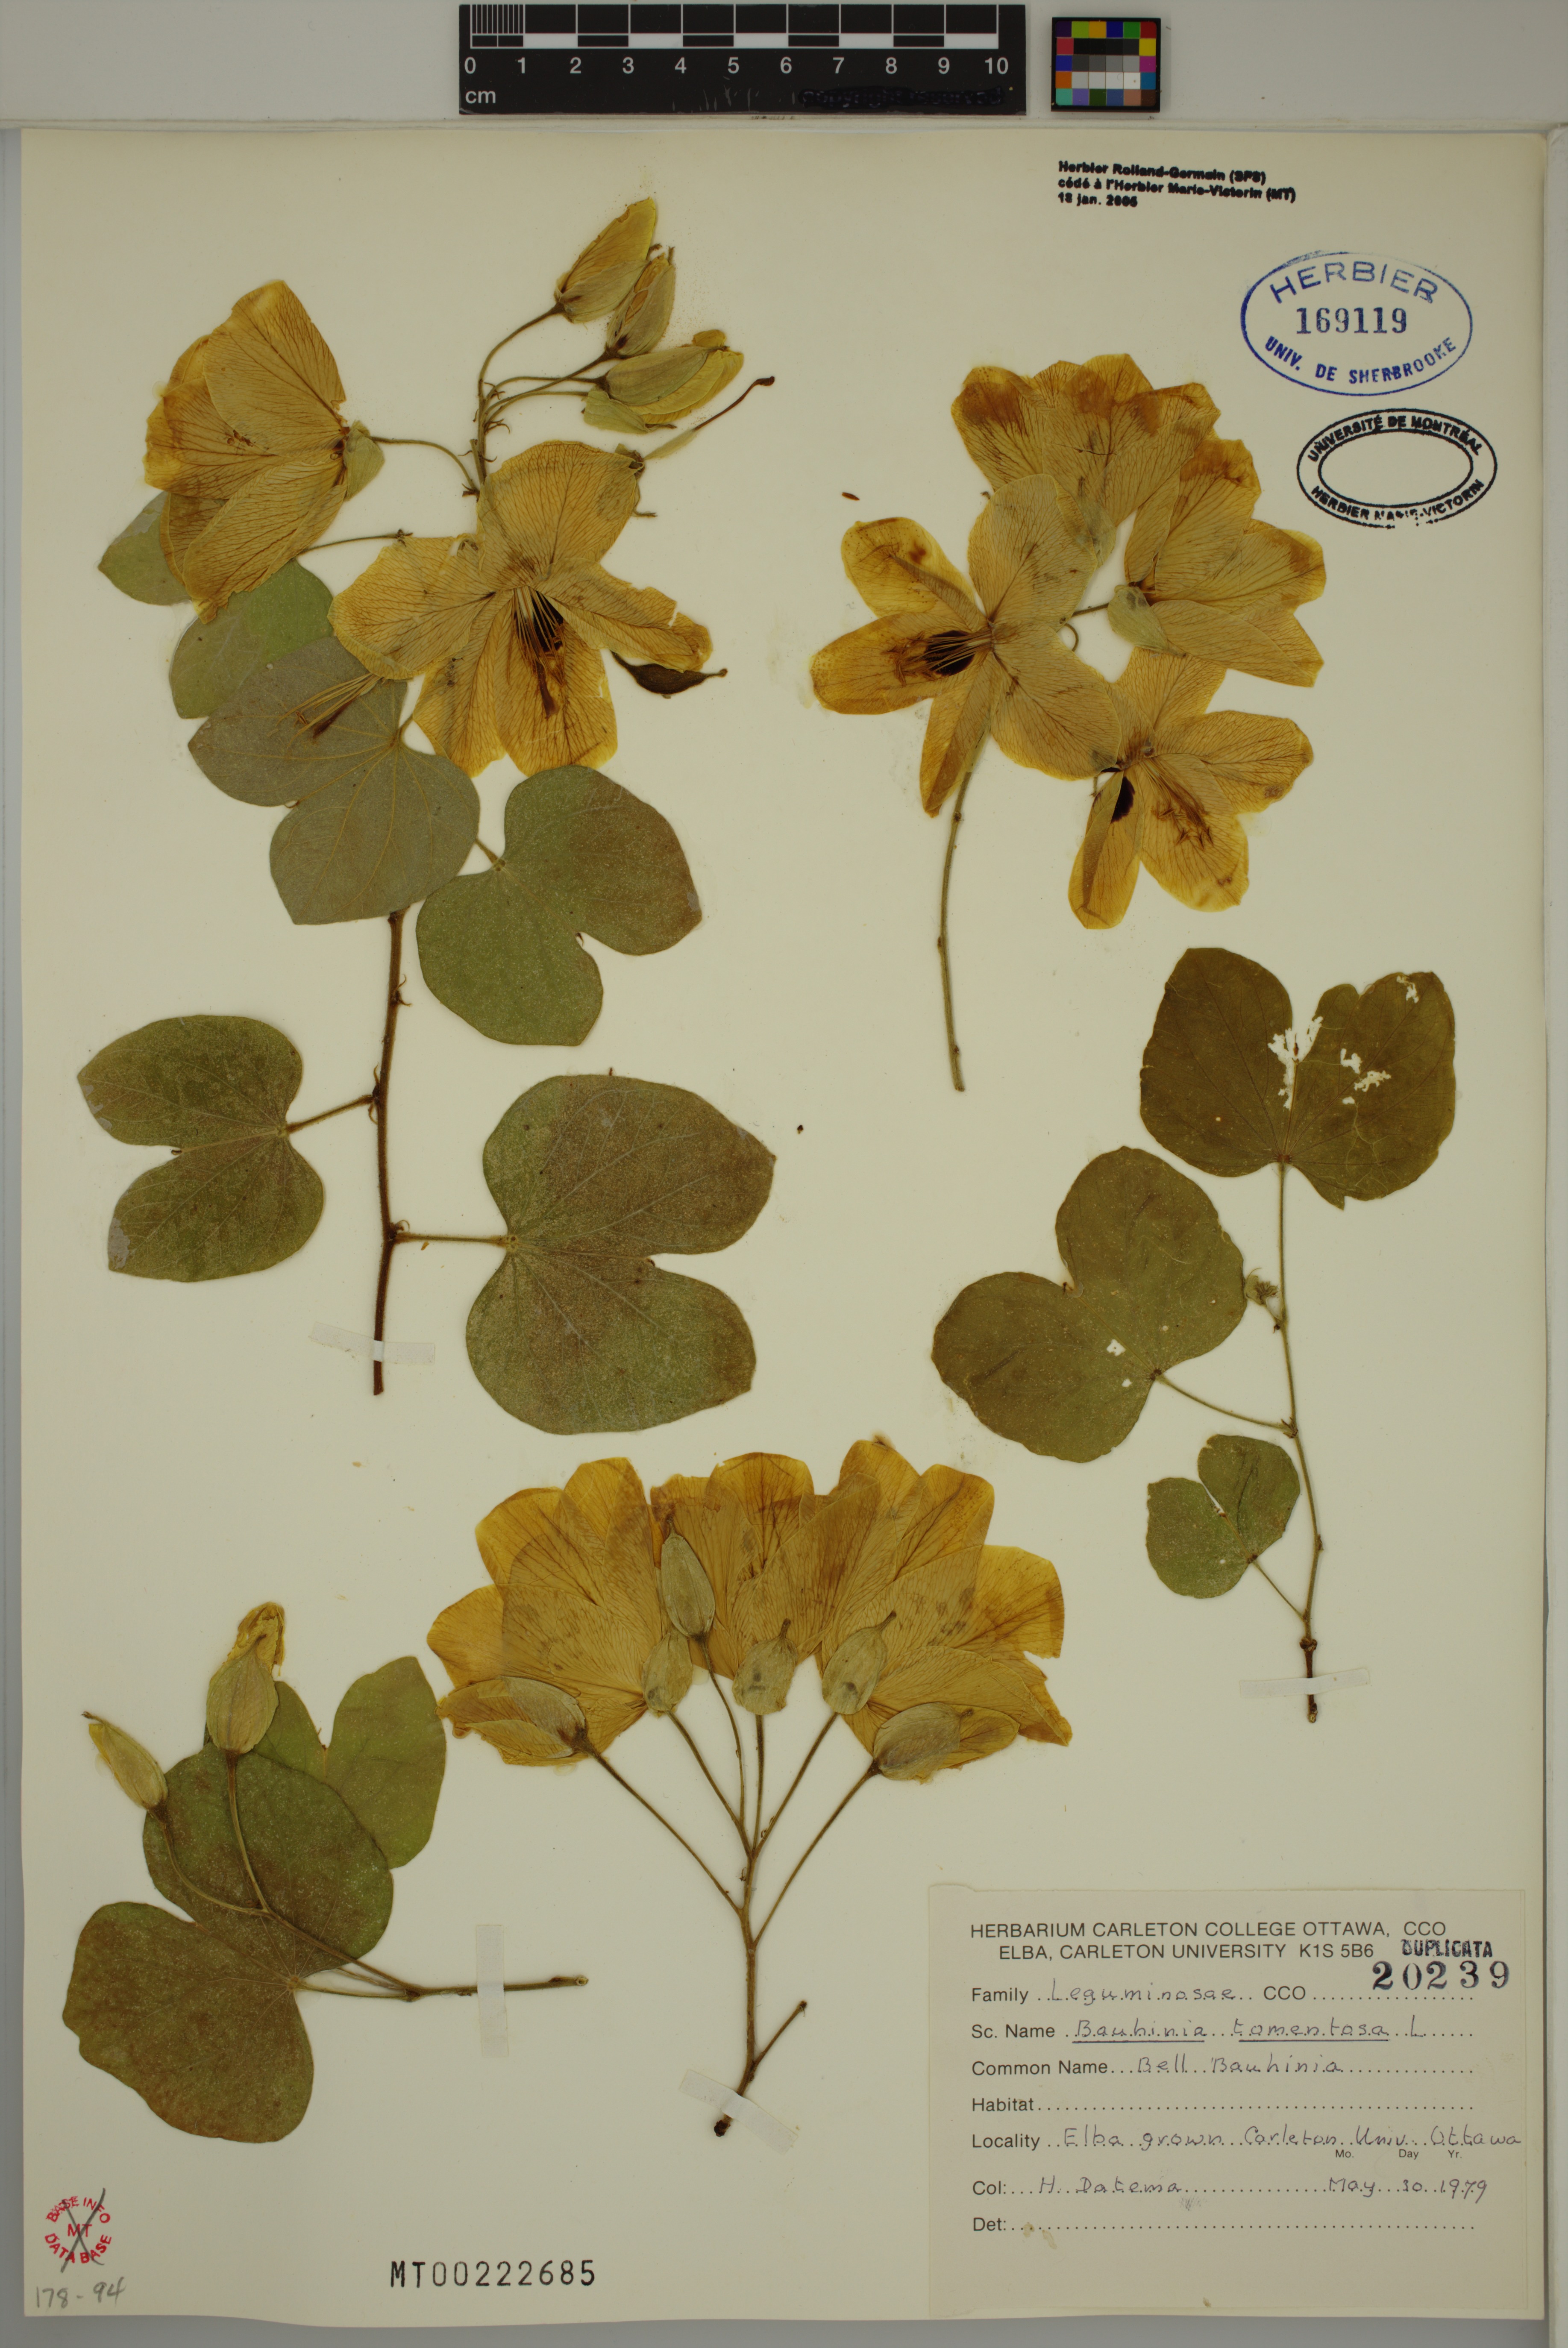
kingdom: Plantae
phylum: Tracheophyta
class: Magnoliopsida
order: Fabales
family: Fabaceae
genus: Bauhinia
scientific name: Bauhinia tomentosa
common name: Bell bauhinia
